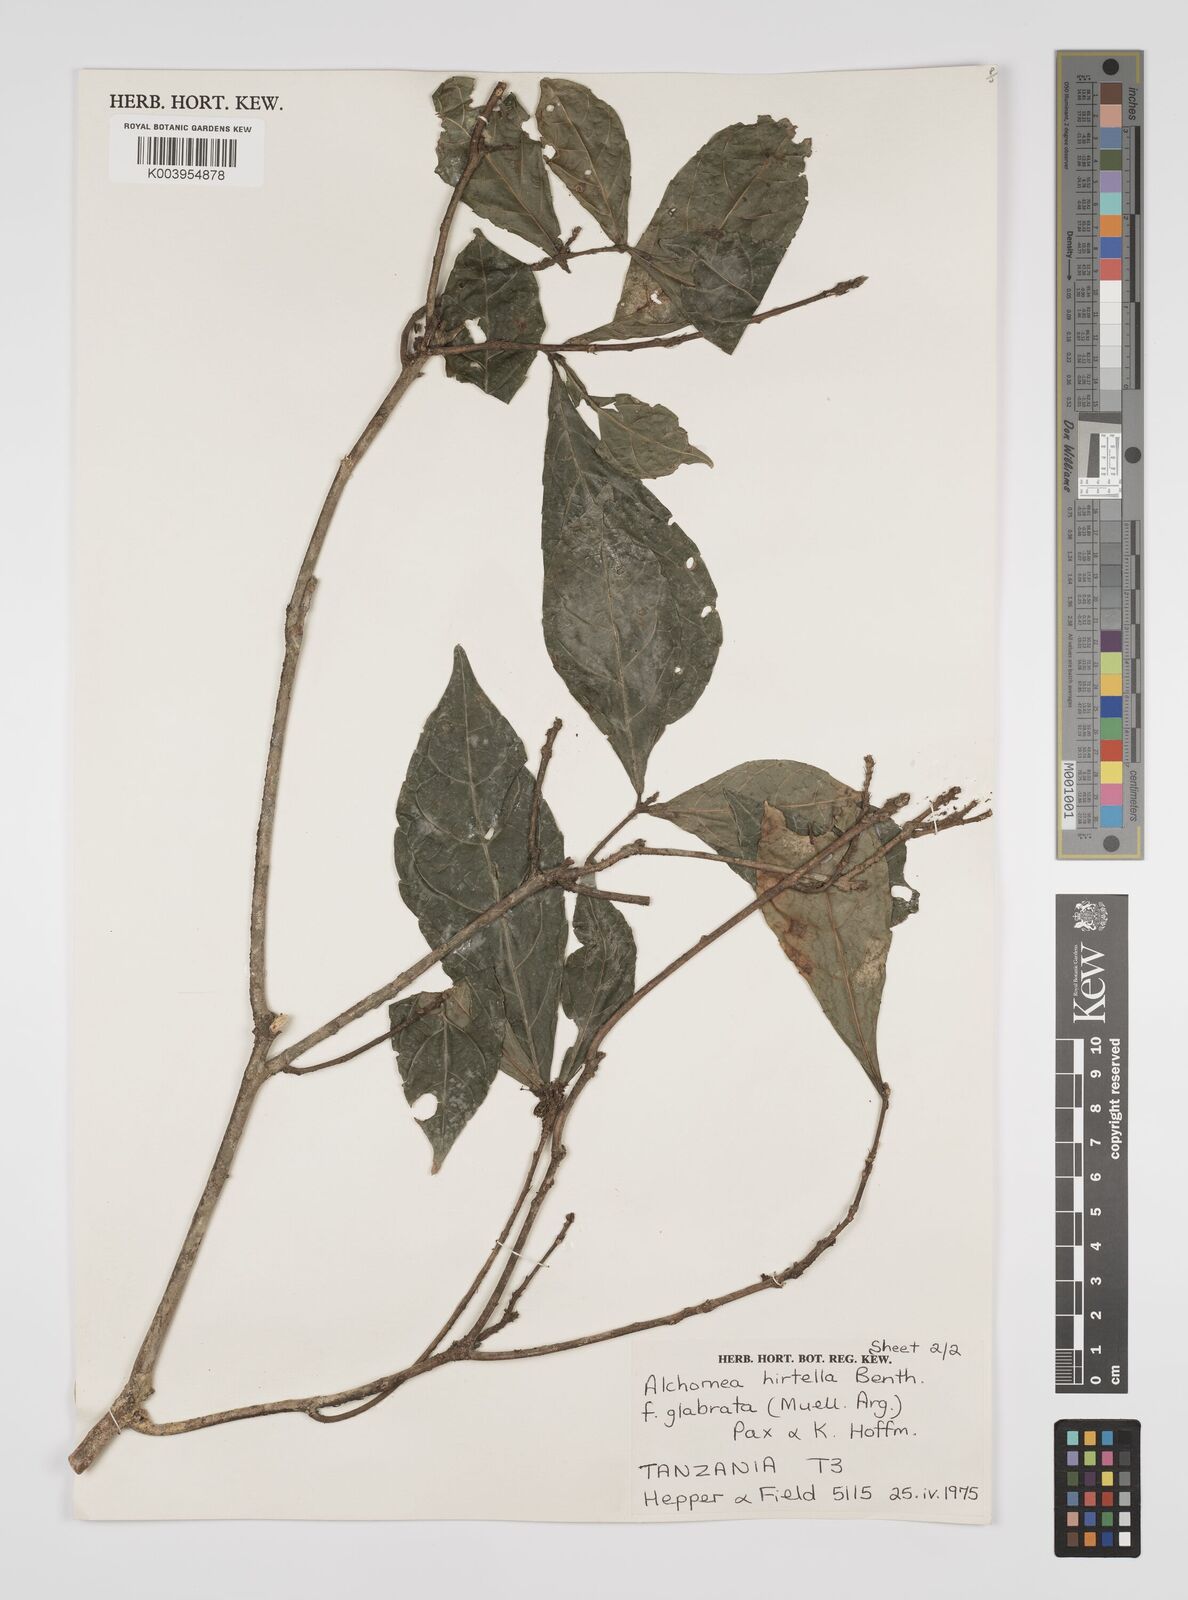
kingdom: Plantae
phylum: Tracheophyta
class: Magnoliopsida
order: Malpighiales
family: Euphorbiaceae
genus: Alchornea
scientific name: Alchornea hirtella
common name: Forest bead-string
